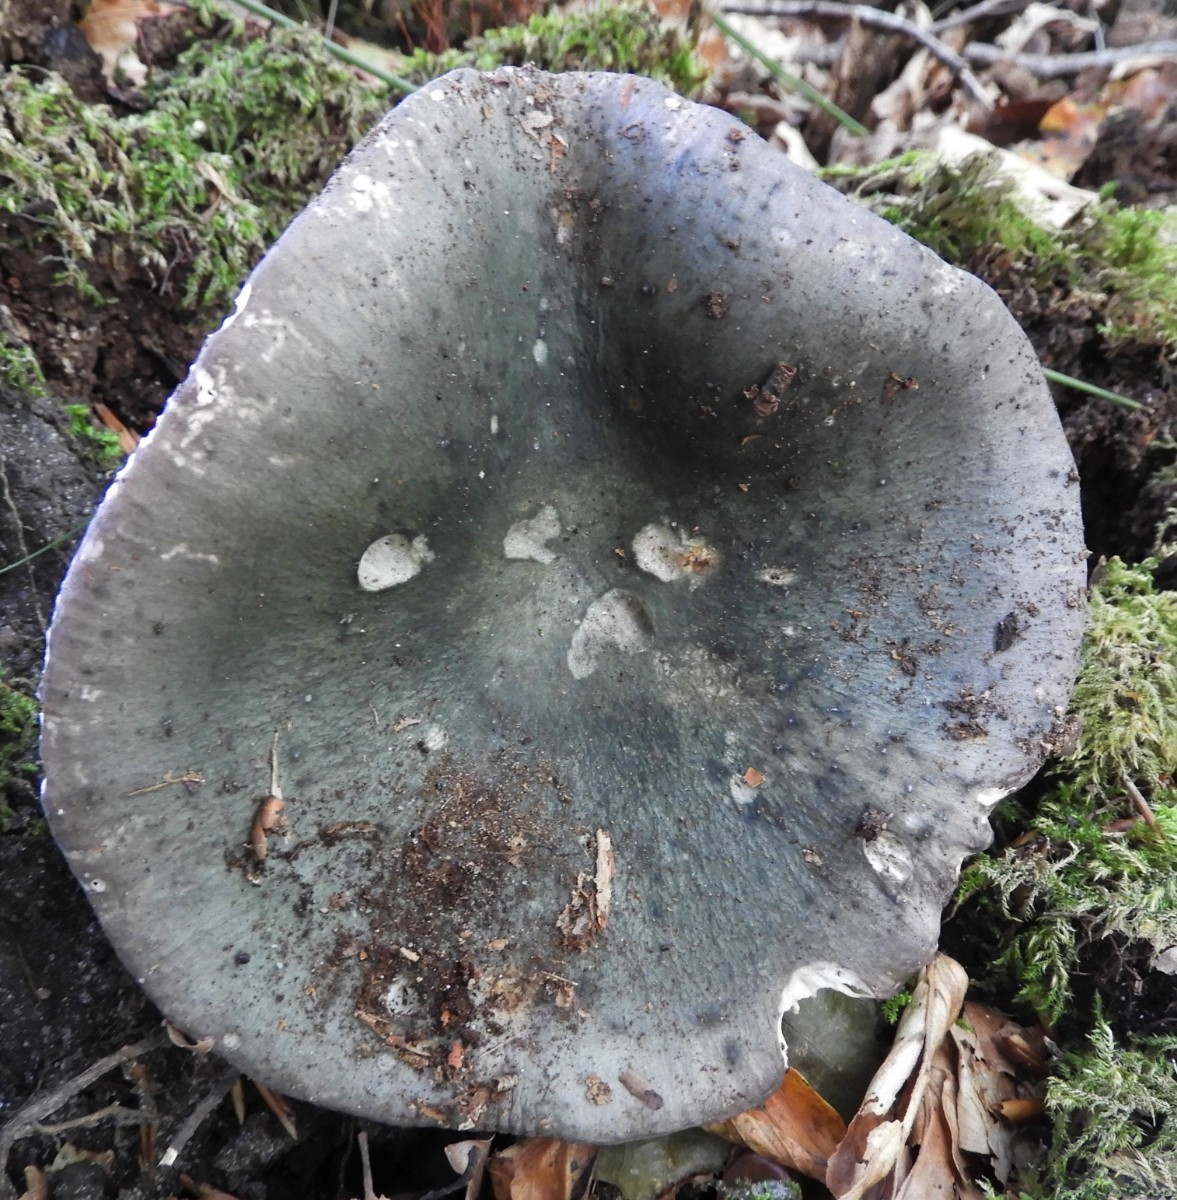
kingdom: Fungi
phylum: Basidiomycota
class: Agaricomycetes
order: Russulales
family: Russulaceae
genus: Russula
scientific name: Russula
